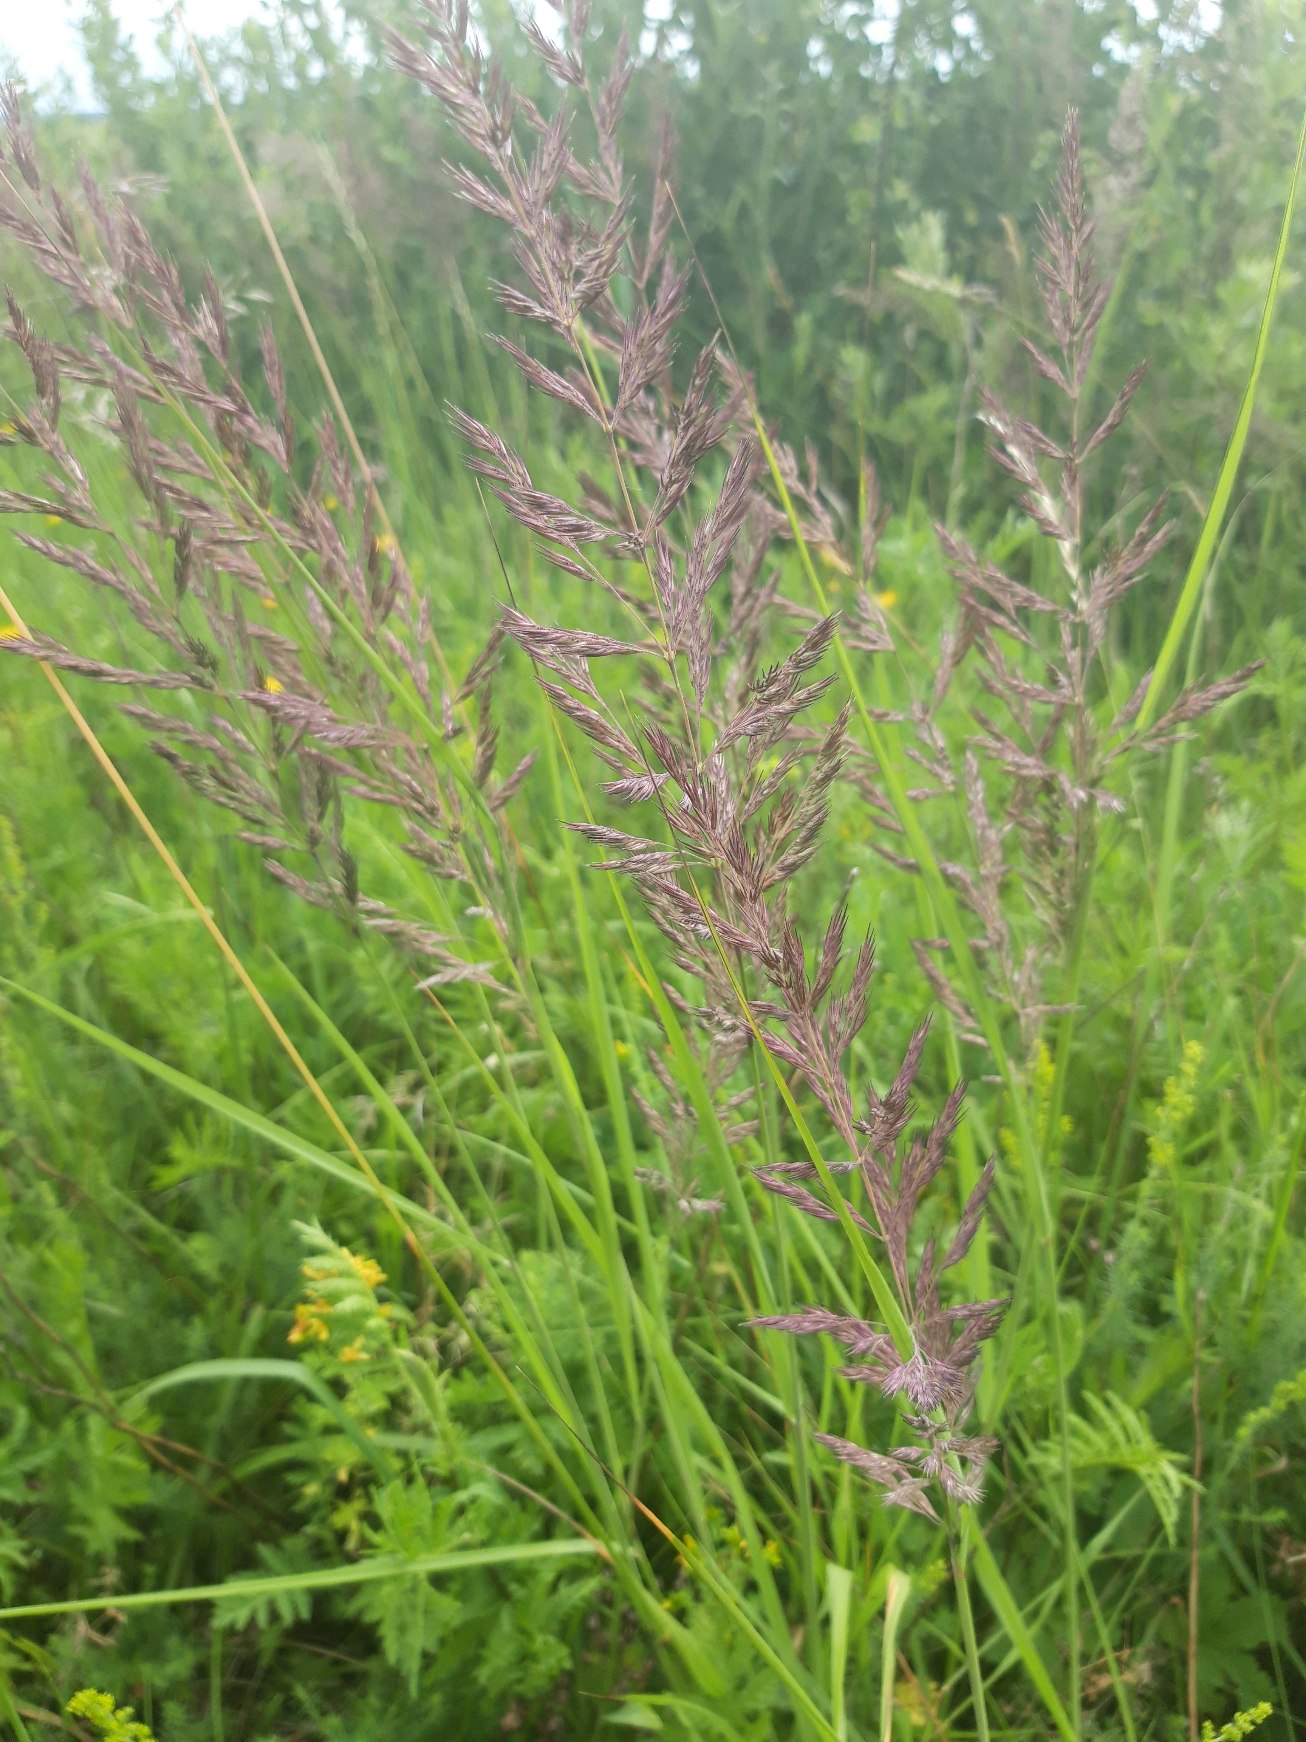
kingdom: Plantae
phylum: Tracheophyta
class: Liliopsida
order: Poales
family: Poaceae
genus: Calamagrostis
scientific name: Calamagrostis epigejos
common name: Bjerg-rørhvene
